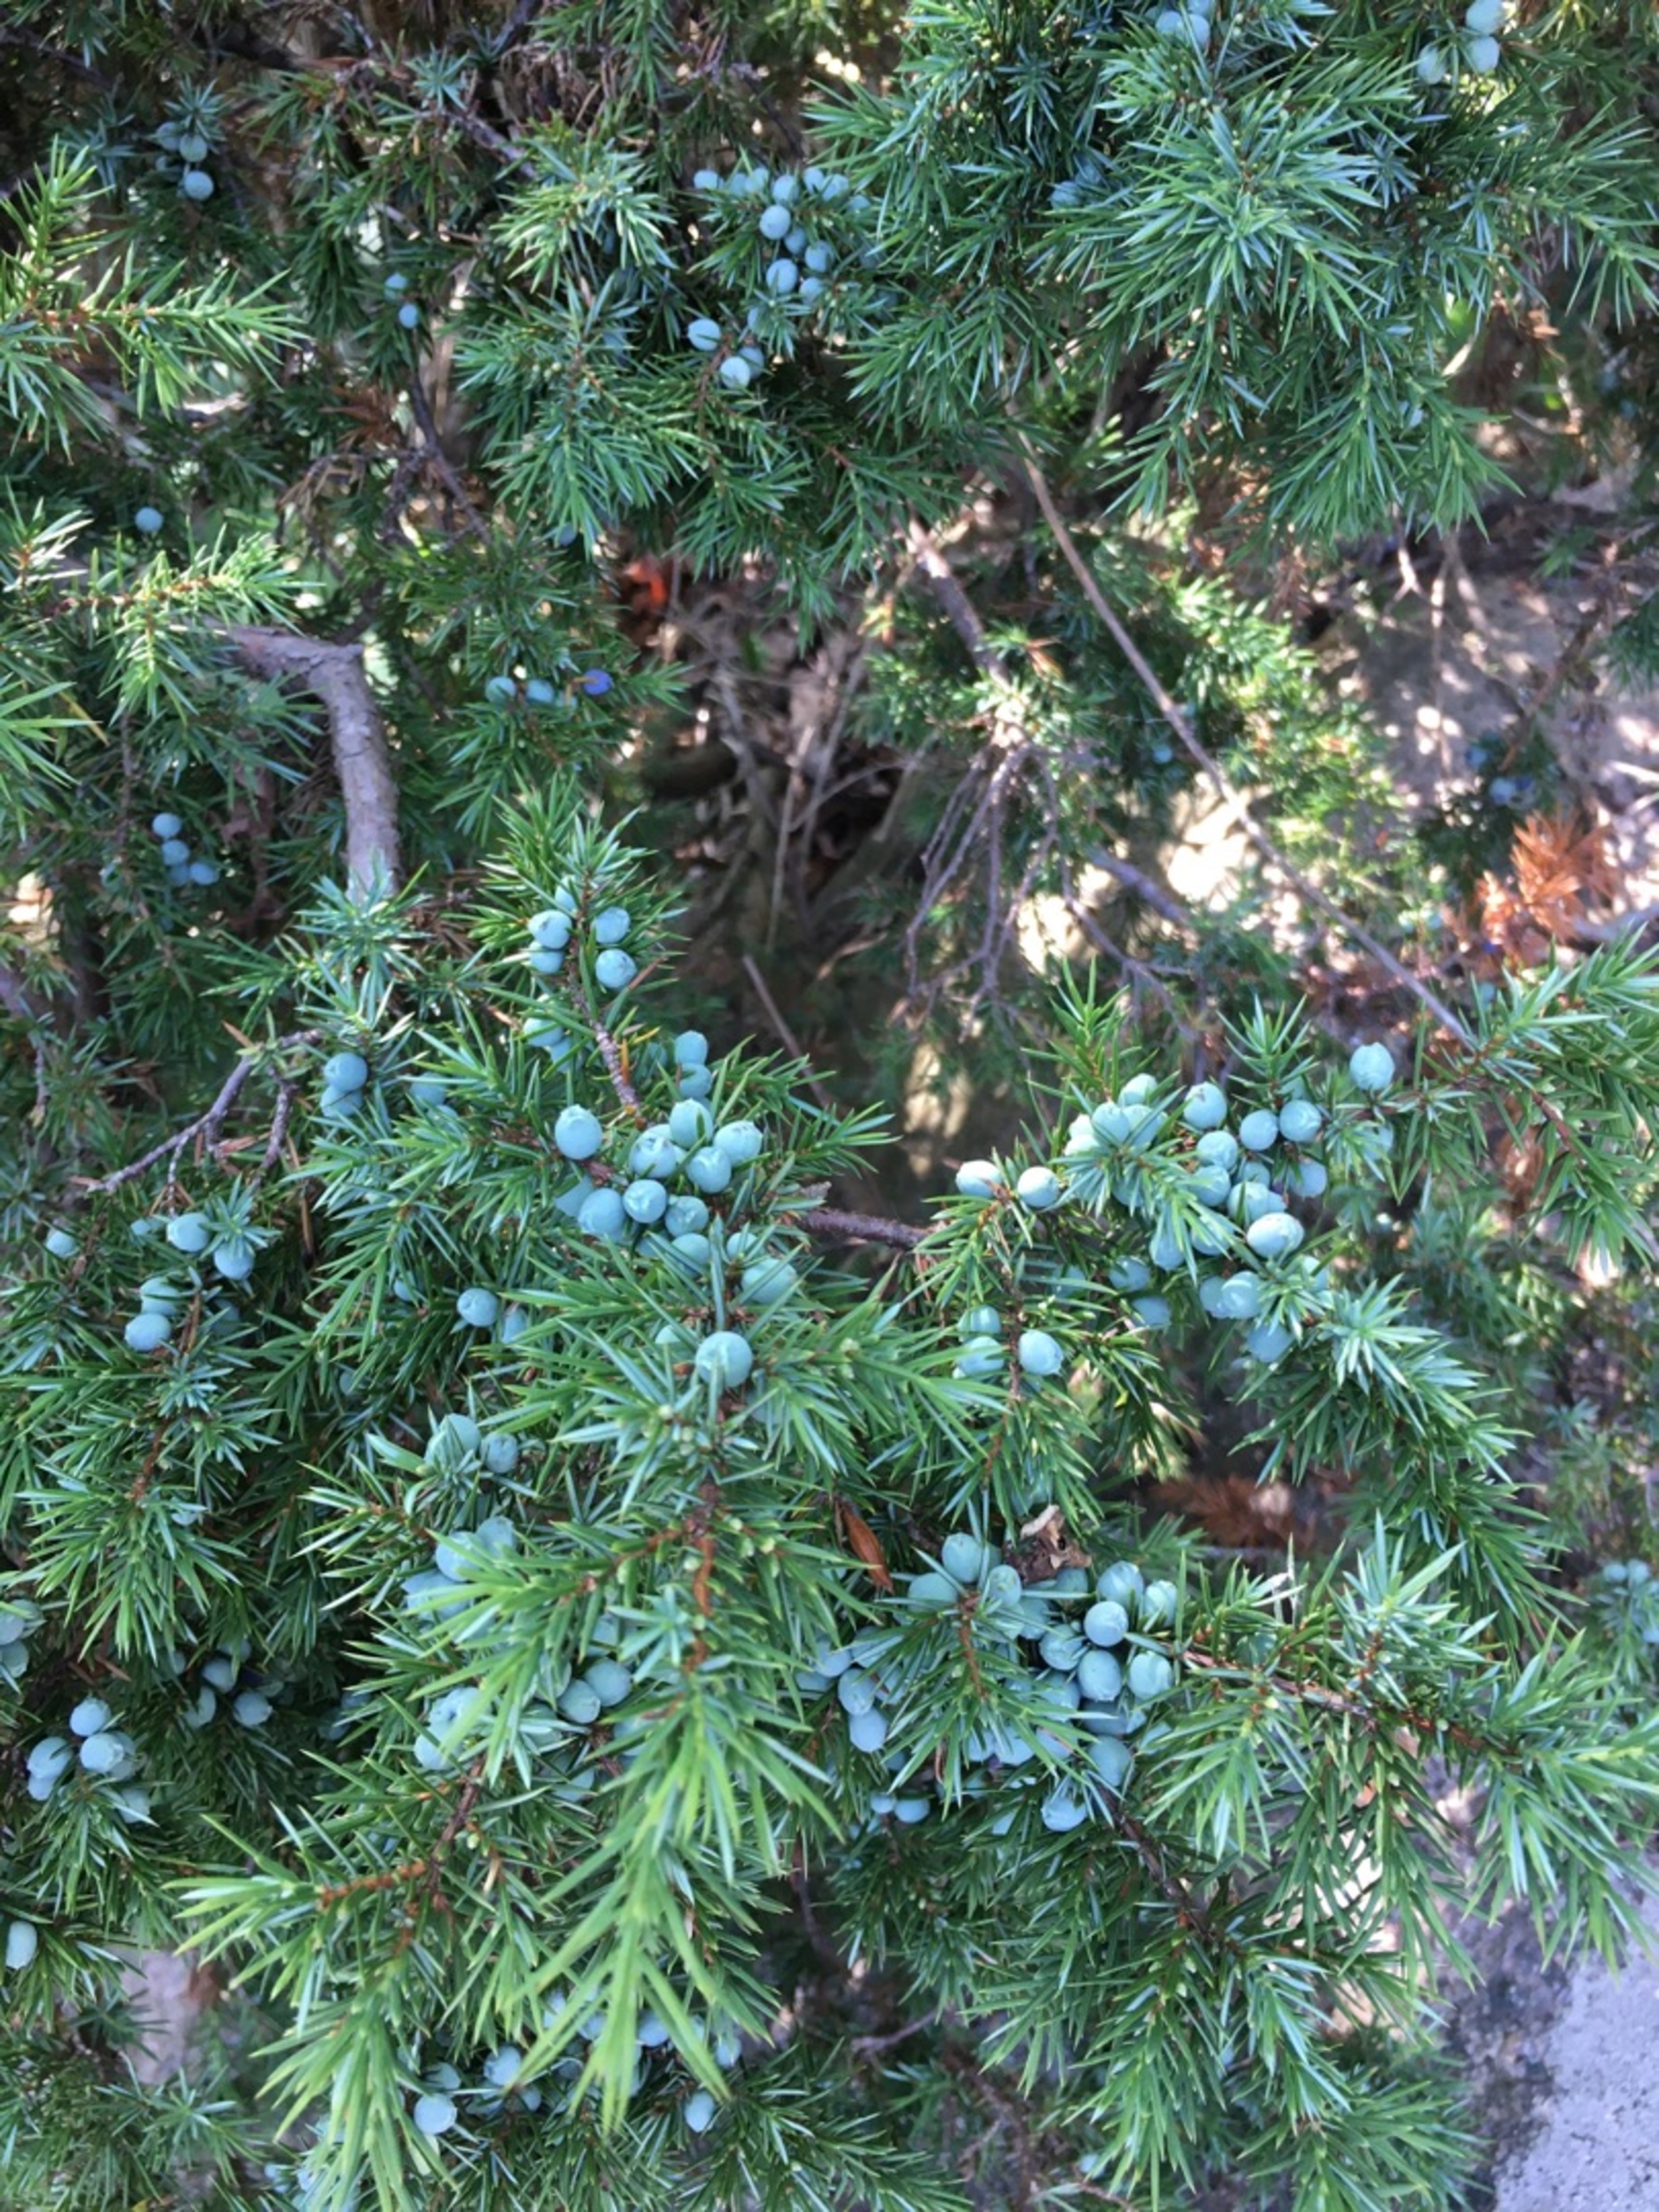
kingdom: Plantae
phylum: Tracheophyta
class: Pinopsida
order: Pinales
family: Cupressaceae
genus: Juniperus
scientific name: Juniperus communis
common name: Almindelig ene
